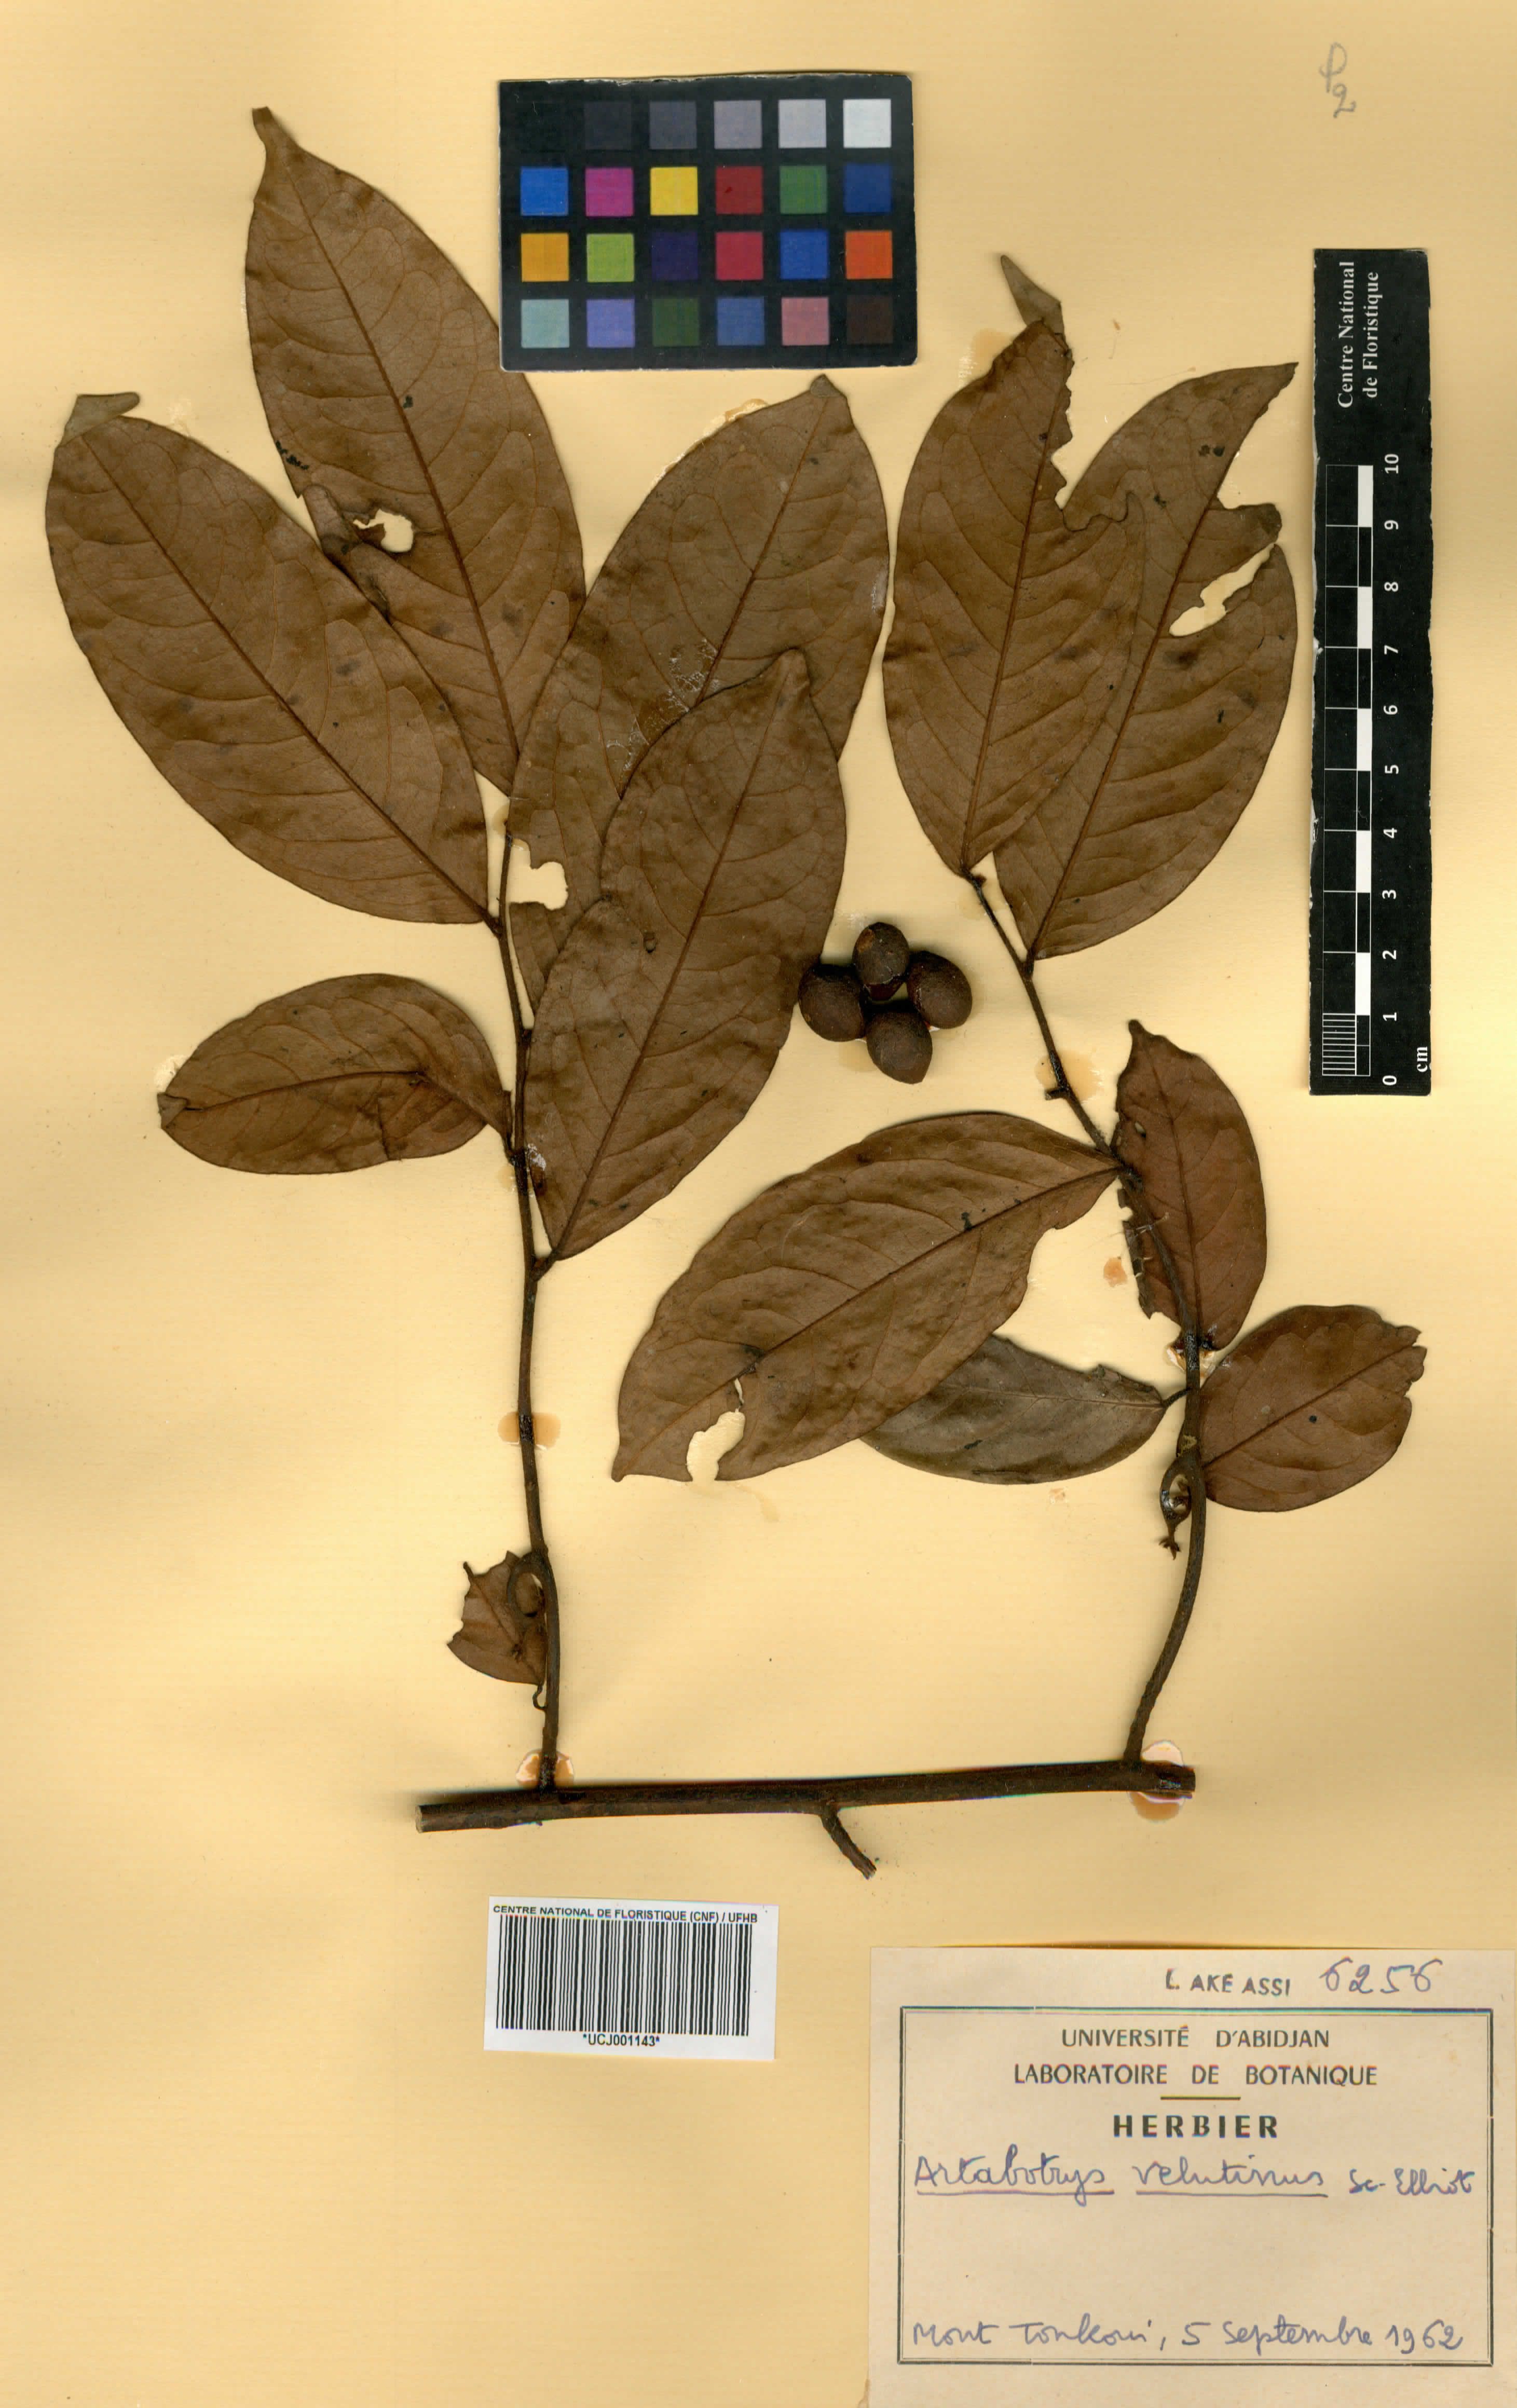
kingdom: Plantae
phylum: Tracheophyta
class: Magnoliopsida
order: Magnoliales
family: Annonaceae
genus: Artabotrys
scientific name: Artabotrys velutinus
